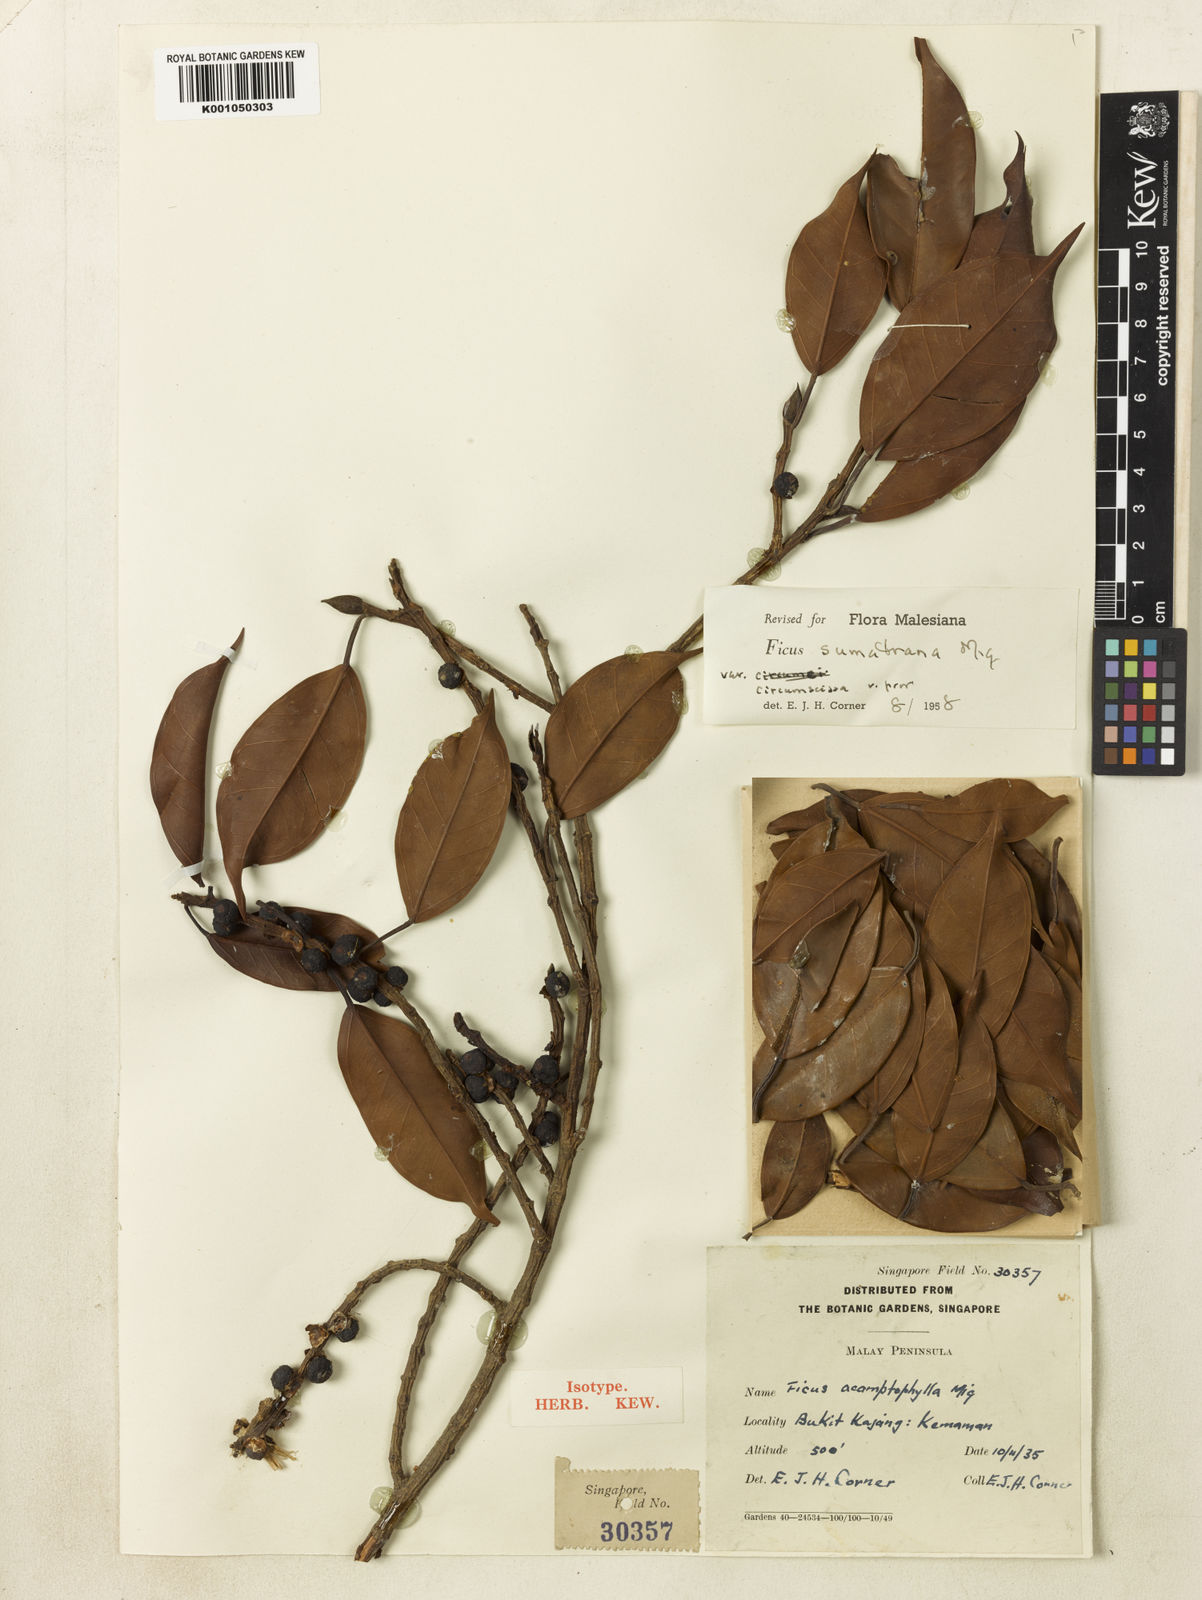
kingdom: Plantae
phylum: Tracheophyta
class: Magnoliopsida
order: Rosales
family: Moraceae
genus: Ficus
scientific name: Ficus sumatrana
